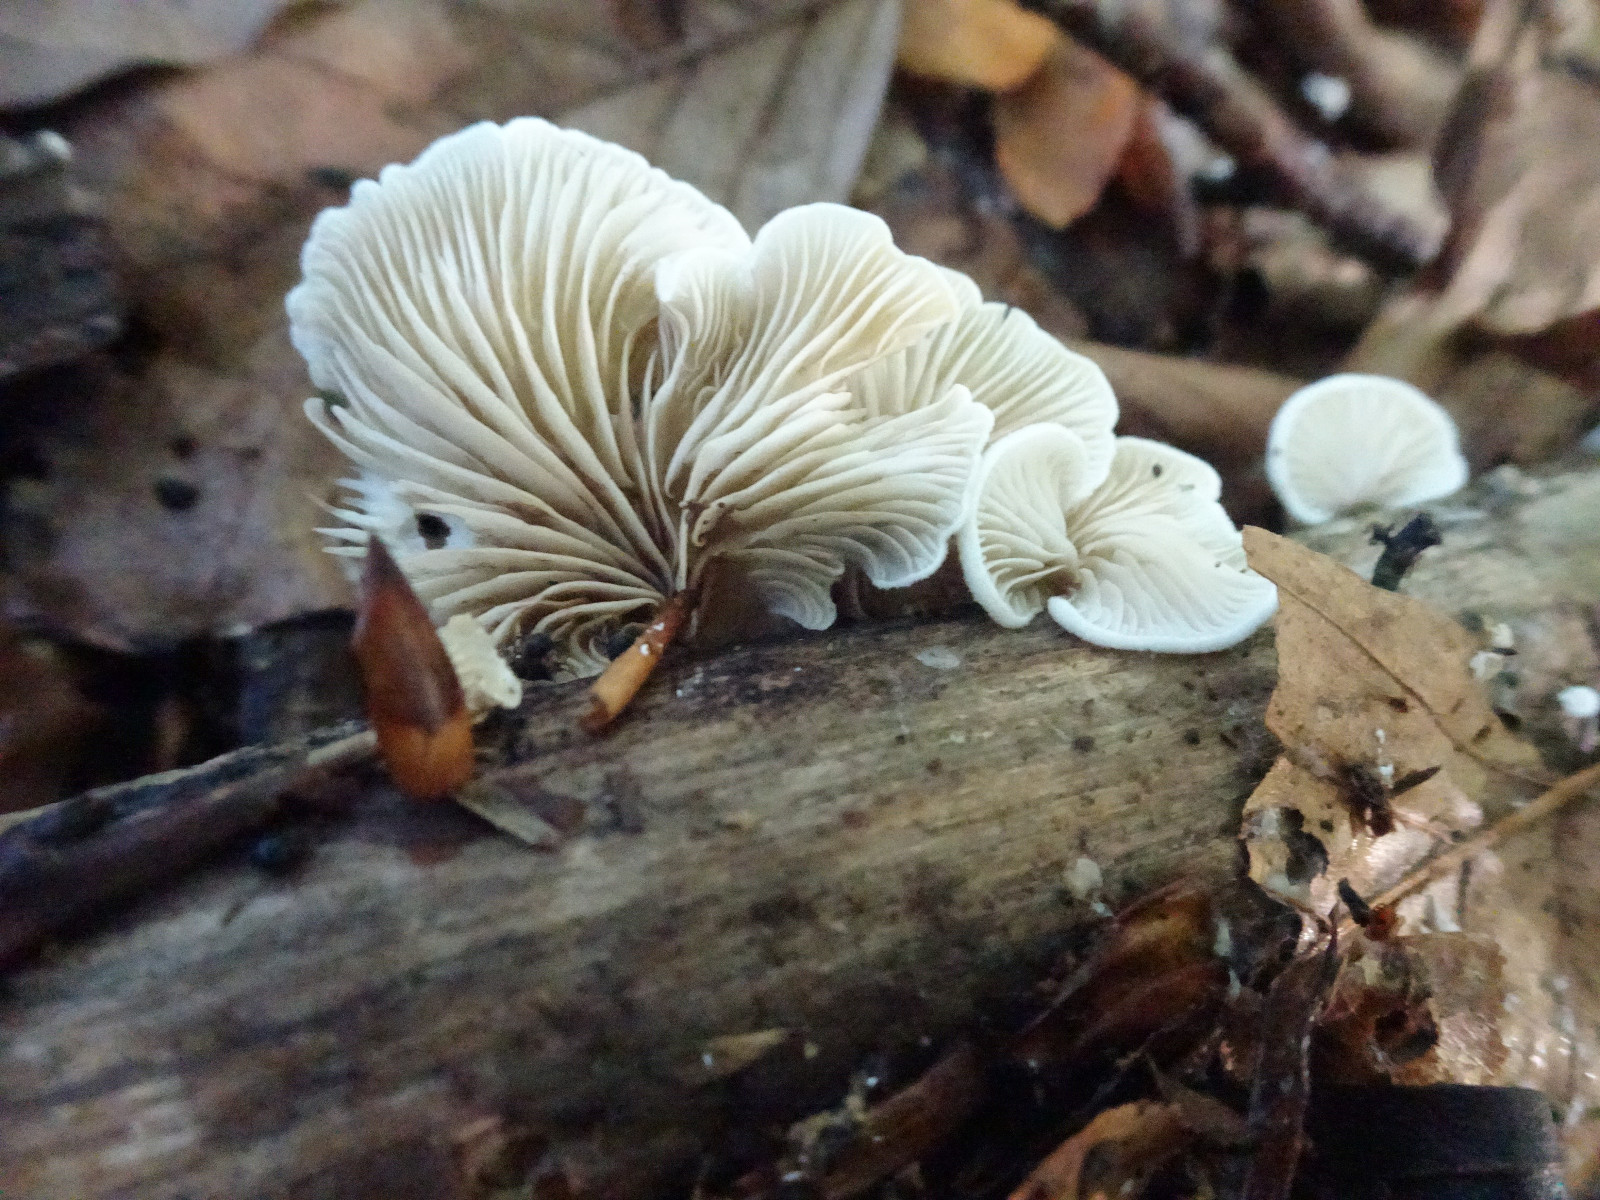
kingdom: Fungi
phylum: Basidiomycota
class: Agaricomycetes
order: Agaricales
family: Crepidotaceae
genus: Crepidotus
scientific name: Crepidotus
